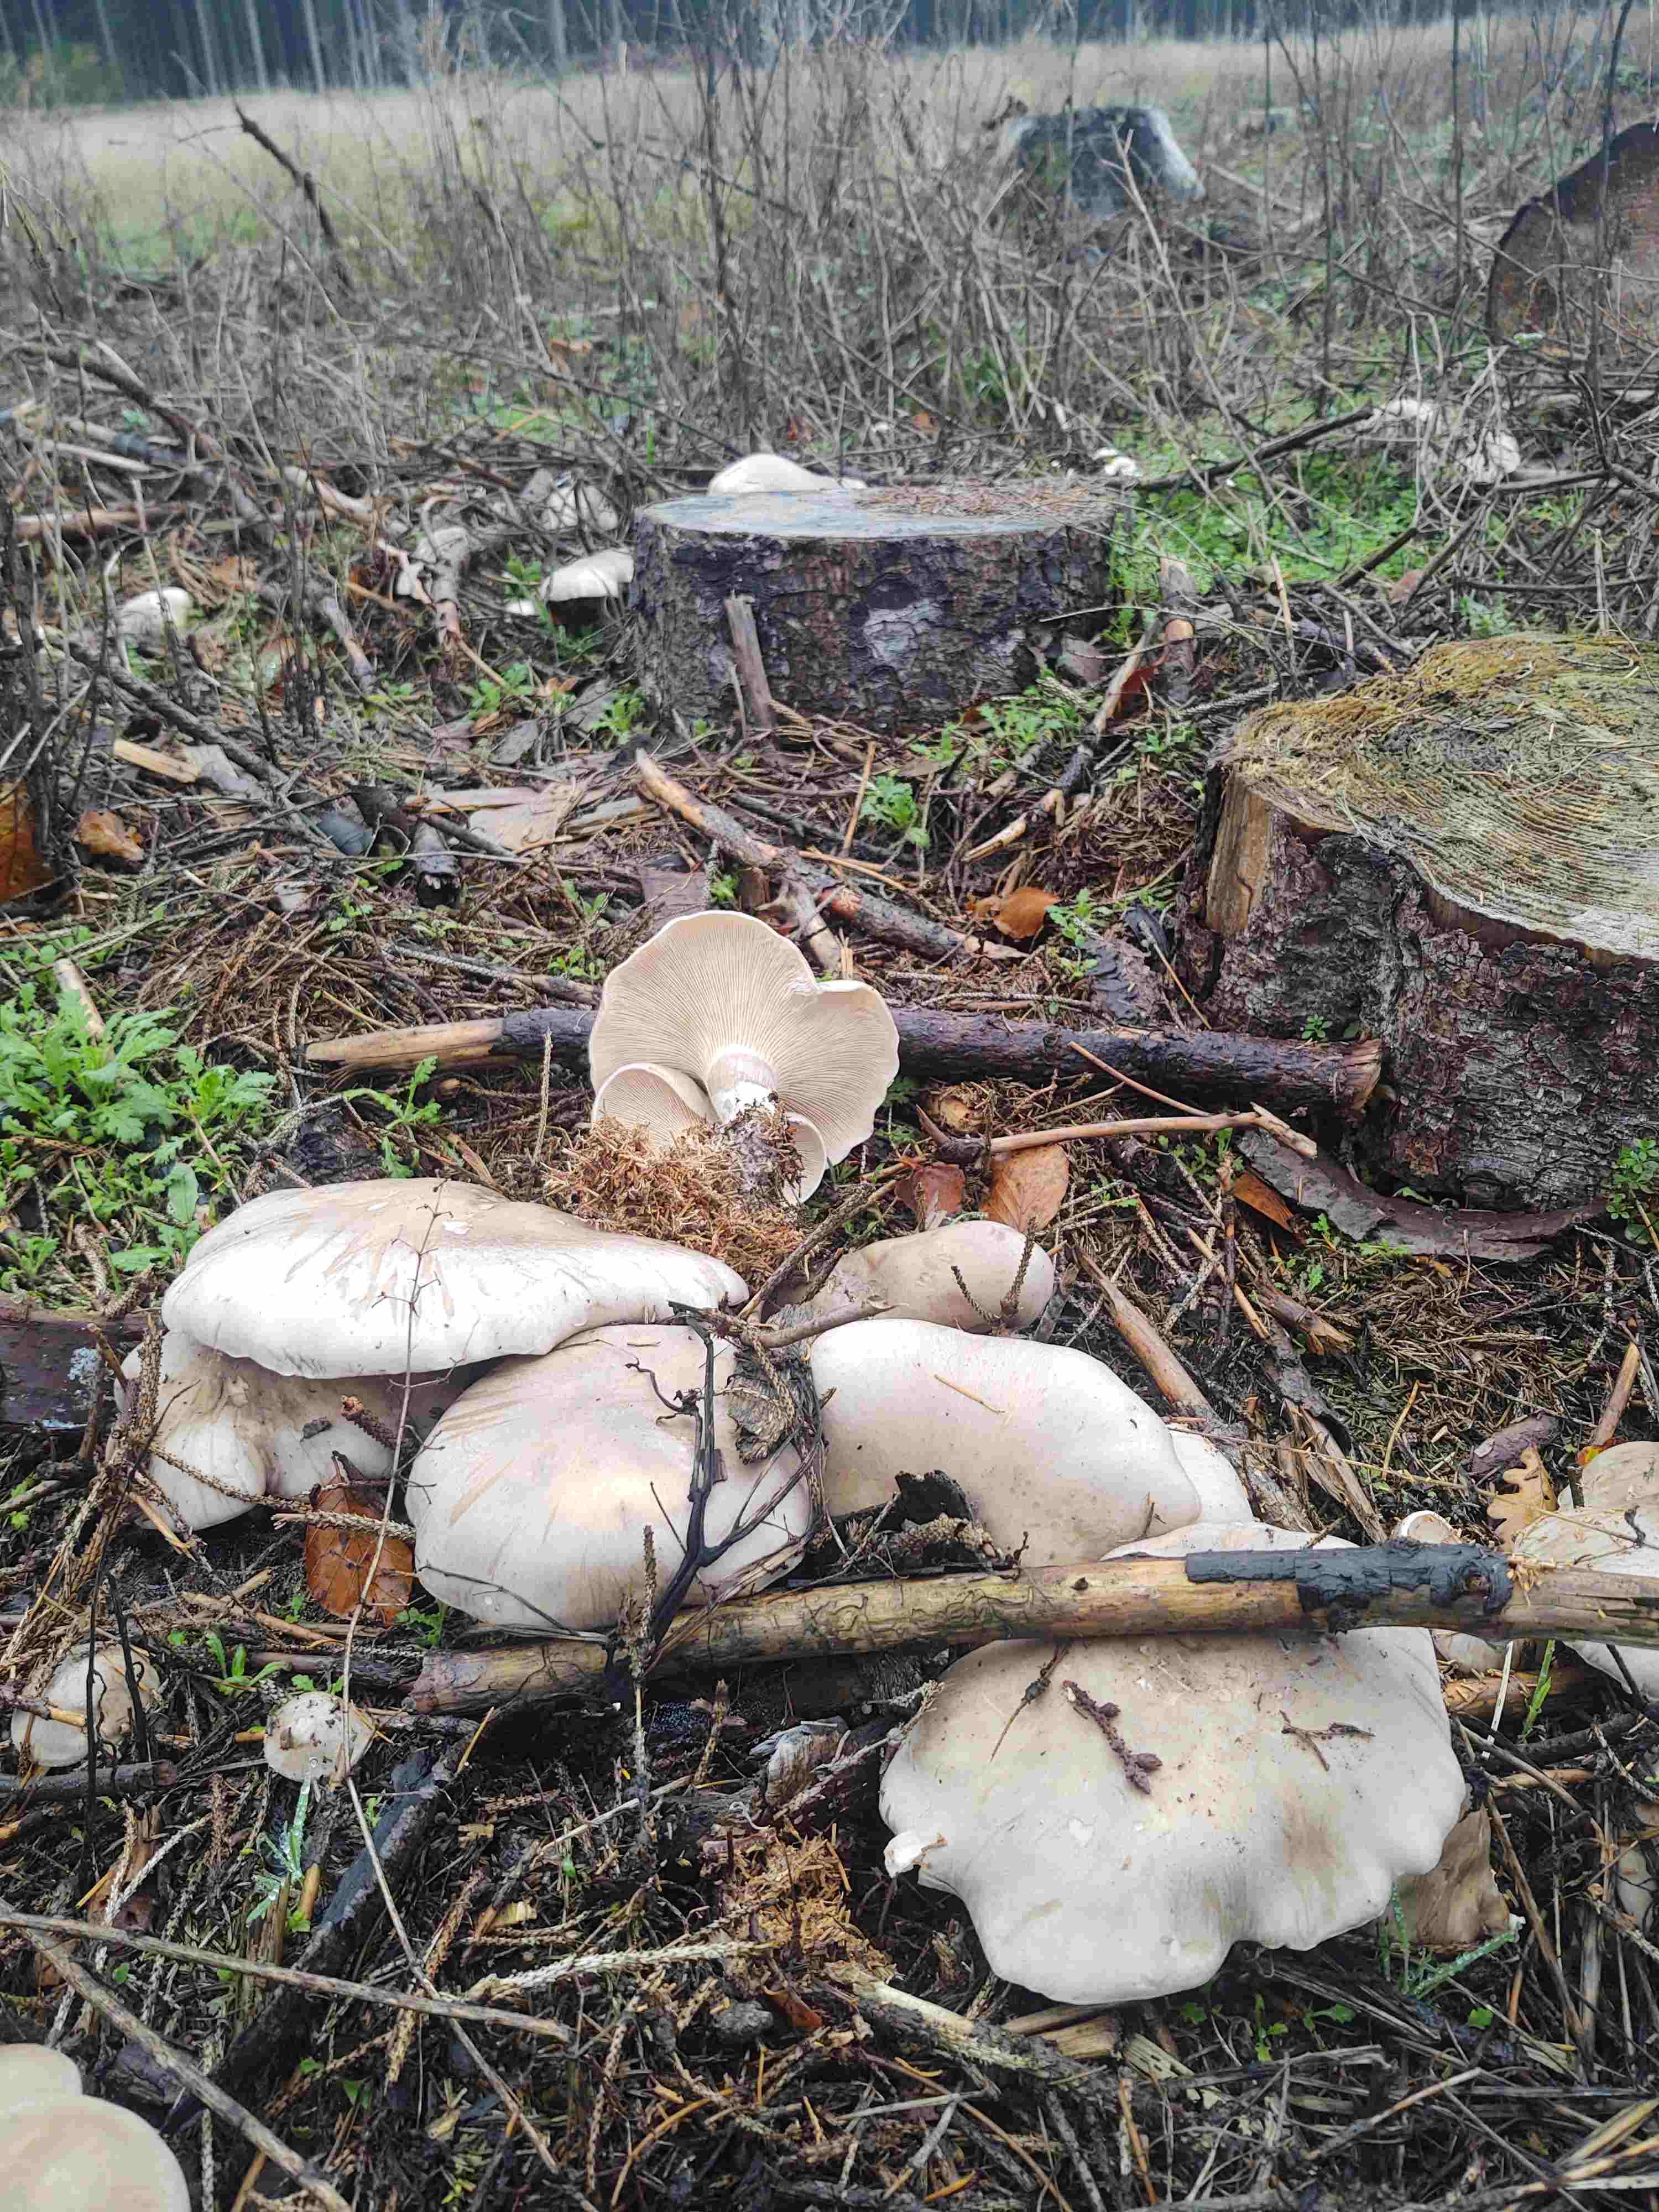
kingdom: Fungi
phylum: Basidiomycota
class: Agaricomycetes
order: Agaricales
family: Tricholomataceae
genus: Clitocybe
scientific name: Clitocybe nebularis
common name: tåge-tragthat
